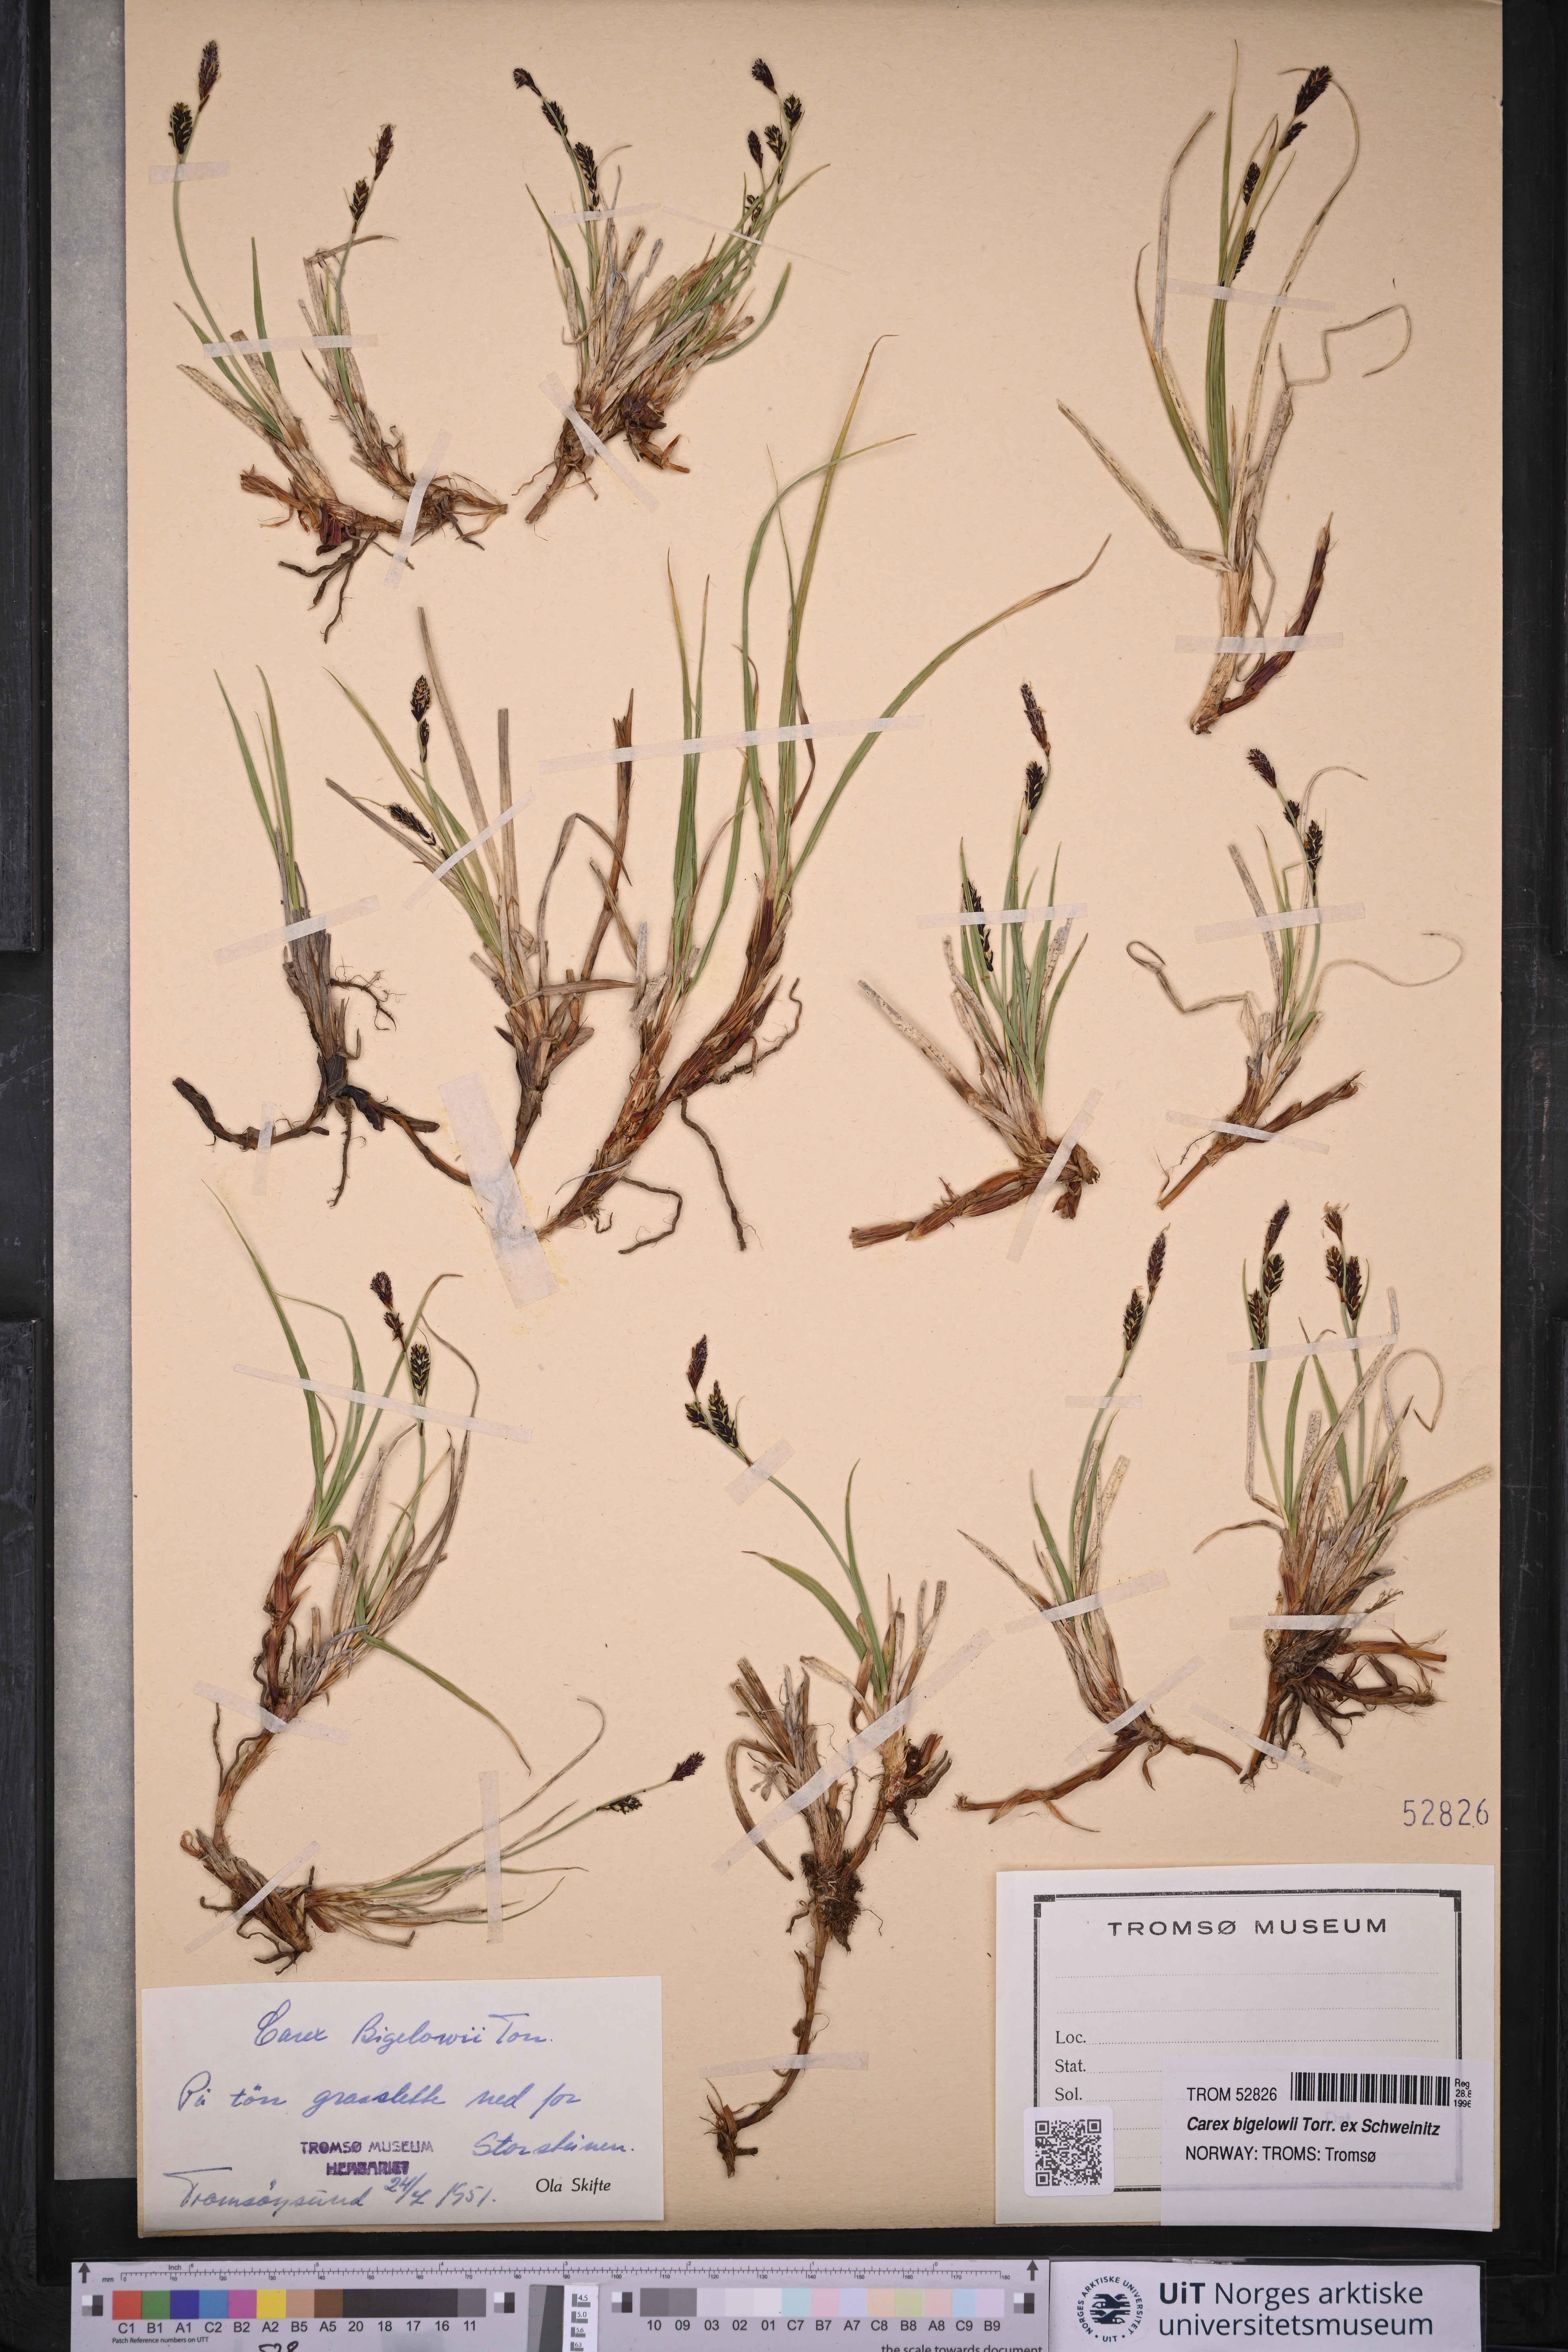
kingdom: Plantae
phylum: Tracheophyta
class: Liliopsida
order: Poales
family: Cyperaceae
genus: Carex
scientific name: Carex bigelowii
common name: Stiff sedge
